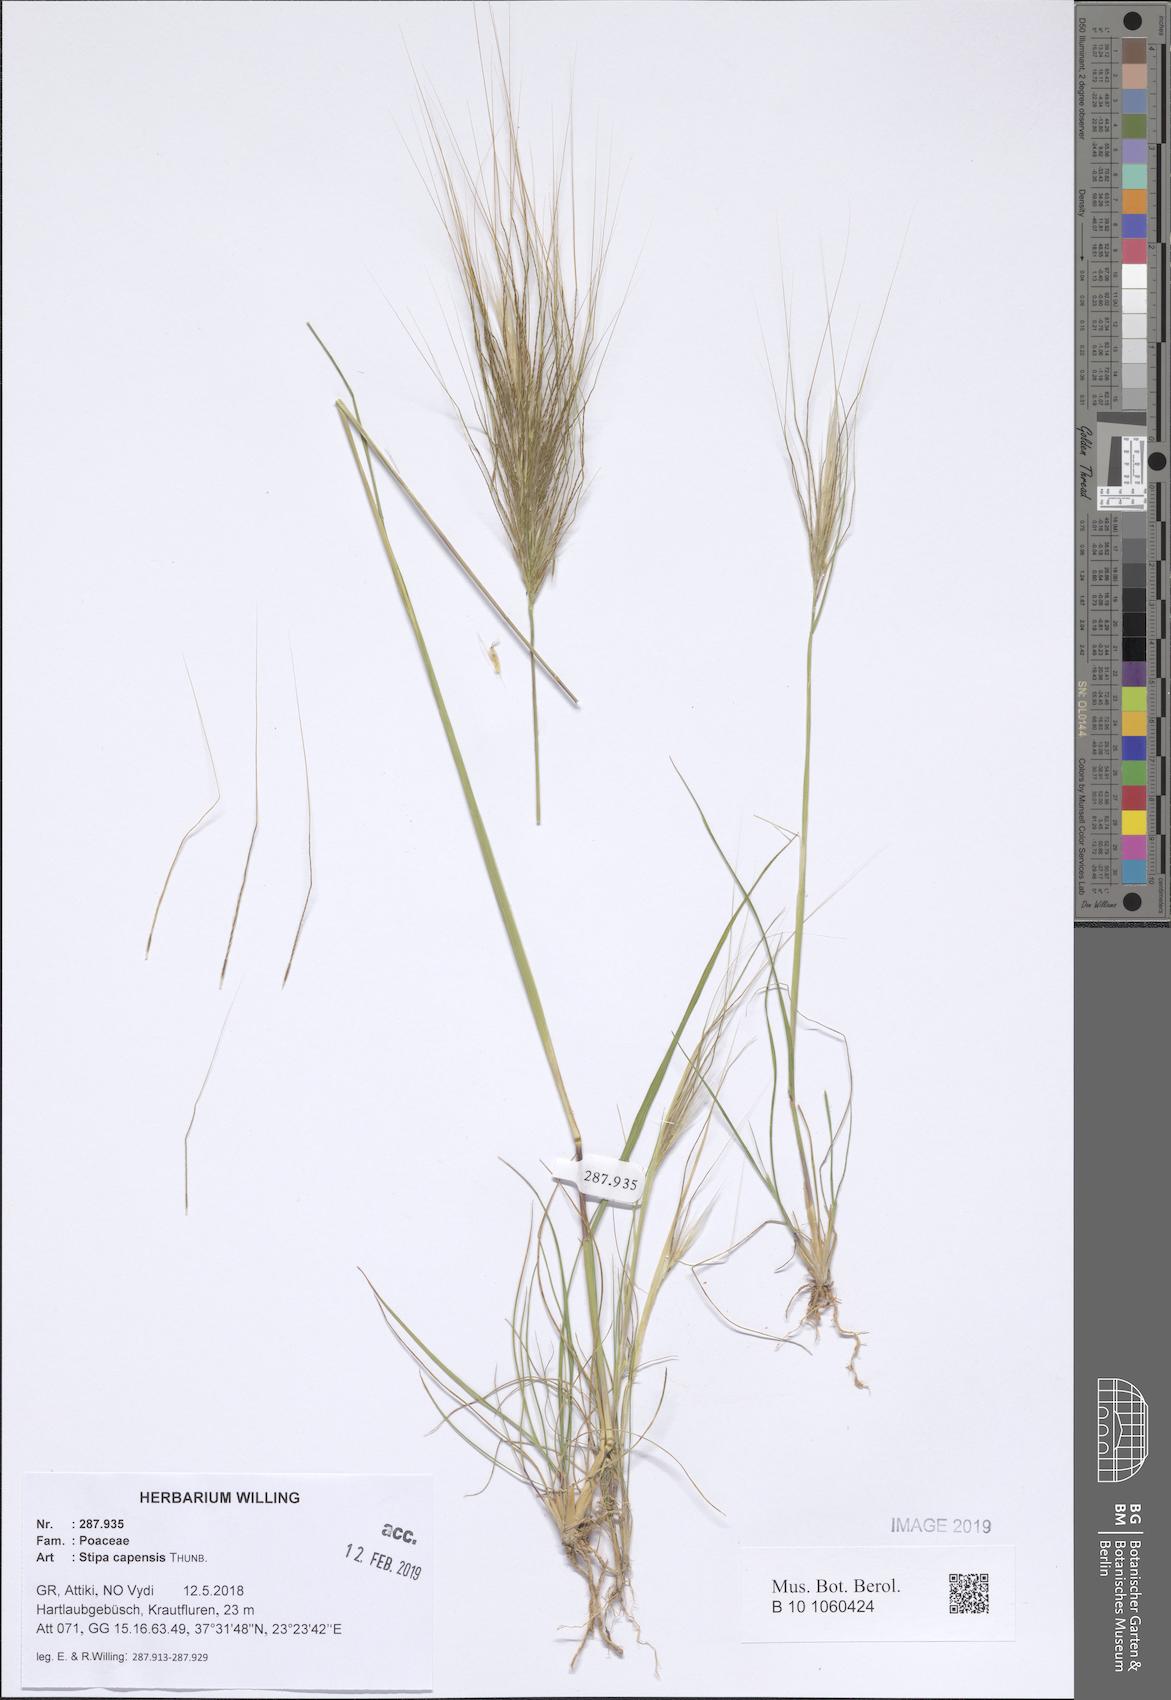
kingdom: Plantae
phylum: Tracheophyta
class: Liliopsida
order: Poales
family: Poaceae
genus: Stipellula
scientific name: Stipellula capensis
